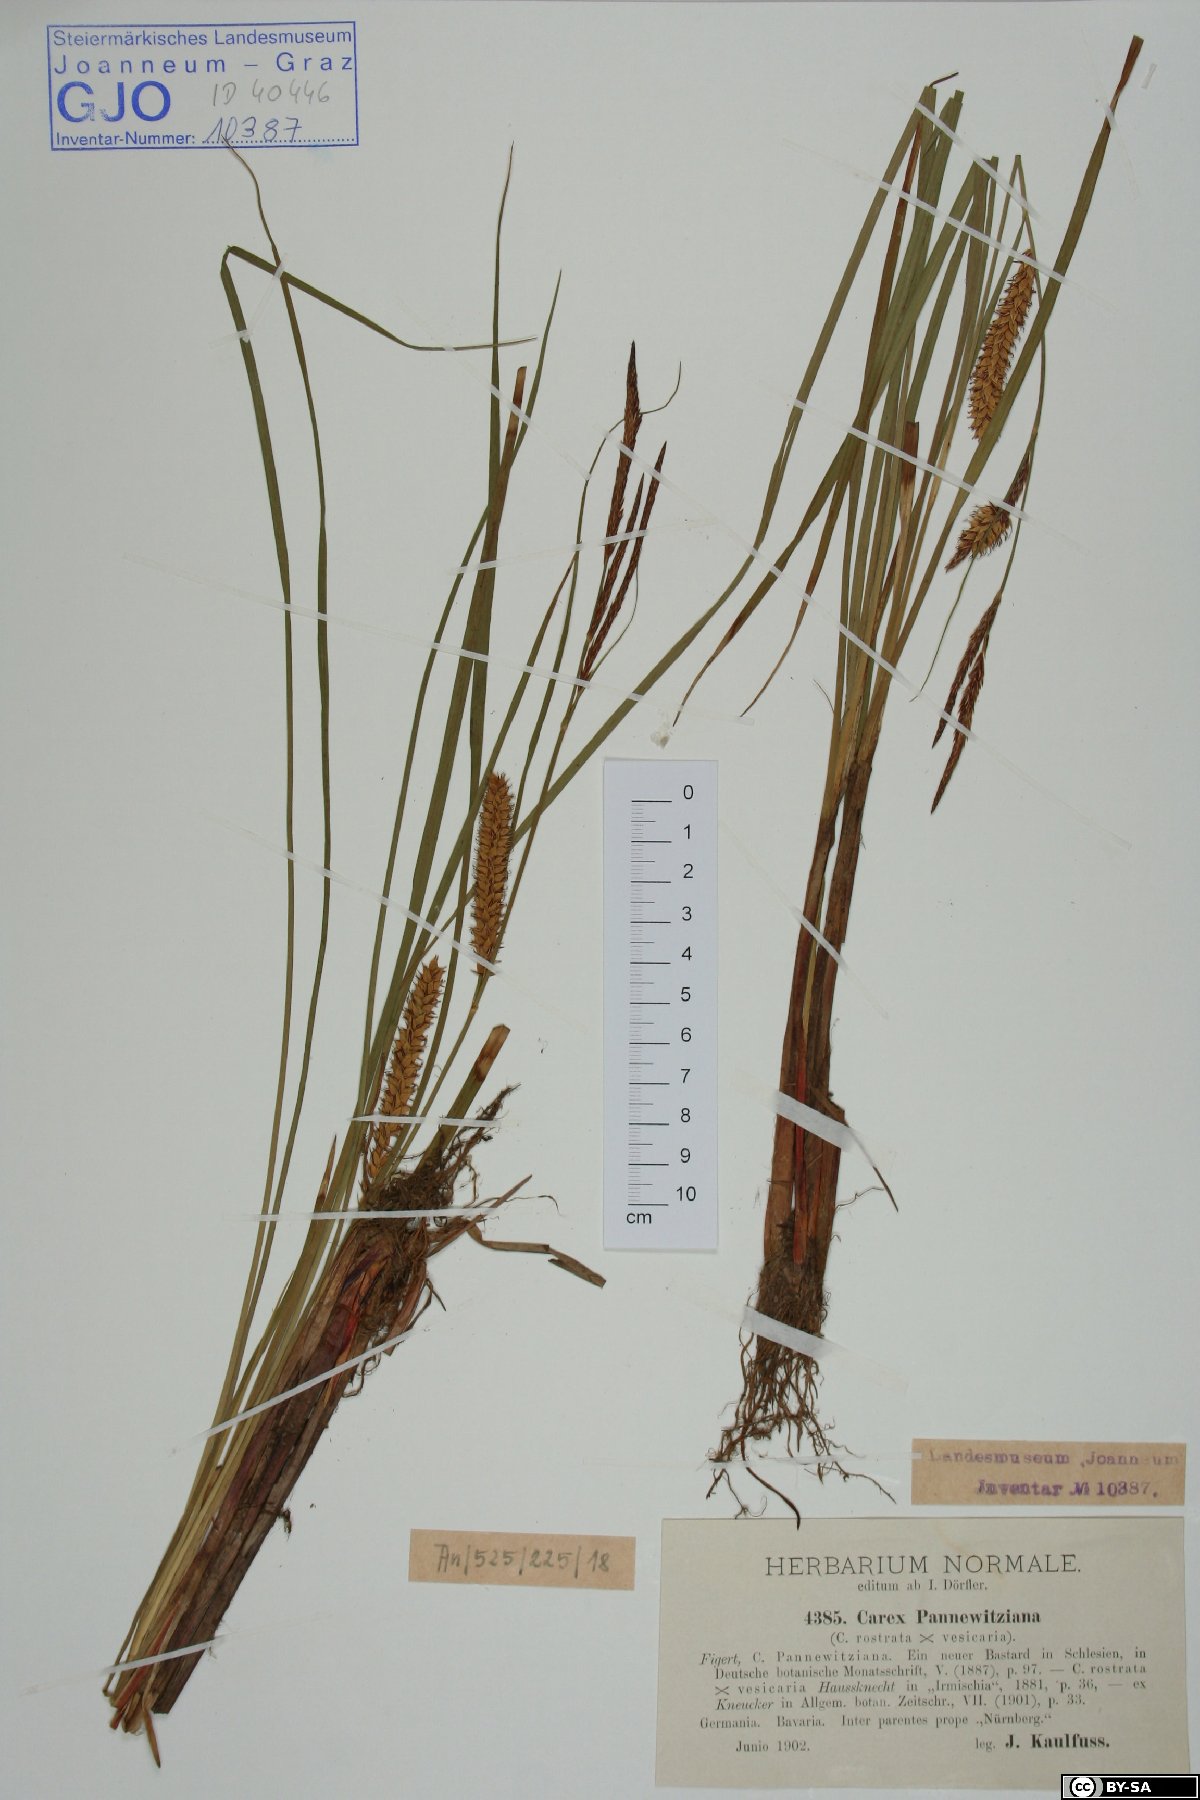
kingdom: Plantae
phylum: Tracheophyta
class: Liliopsida
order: Poales
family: Cyperaceae
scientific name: Cyperaceae
